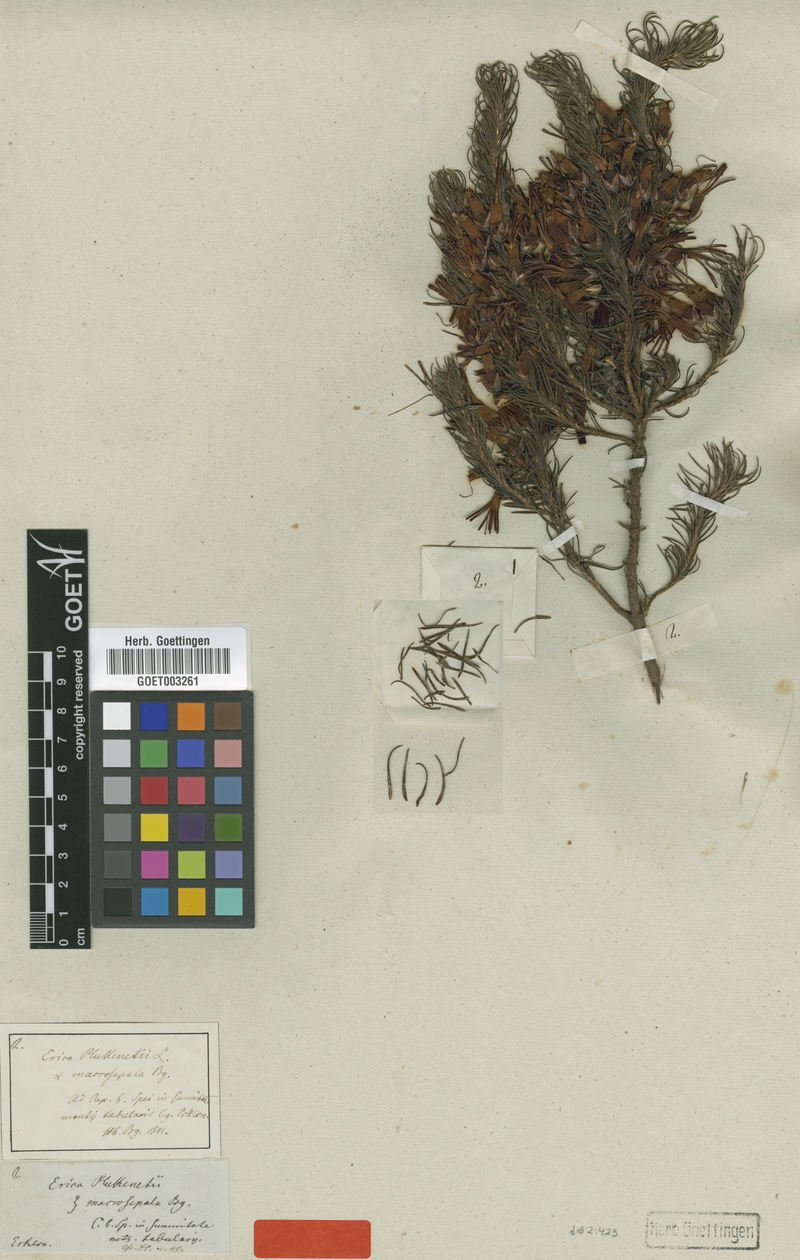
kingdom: Plantae
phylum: Tracheophyta
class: Magnoliopsida
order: Ericales
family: Ericaceae
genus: Erica
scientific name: Erica plukenetii
